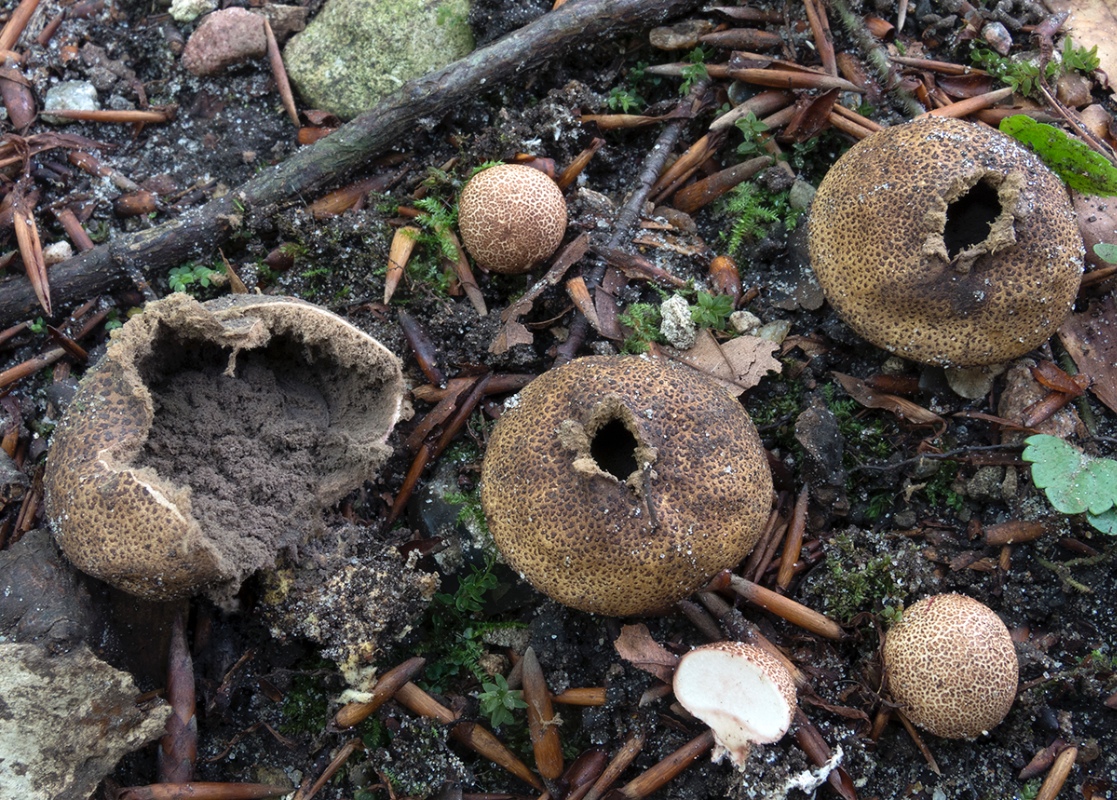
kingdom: Fungi
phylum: Basidiomycota
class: Agaricomycetes
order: Boletales
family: Sclerodermataceae
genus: Scleroderma
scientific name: Scleroderma areolatum
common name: plettet bruskbold
